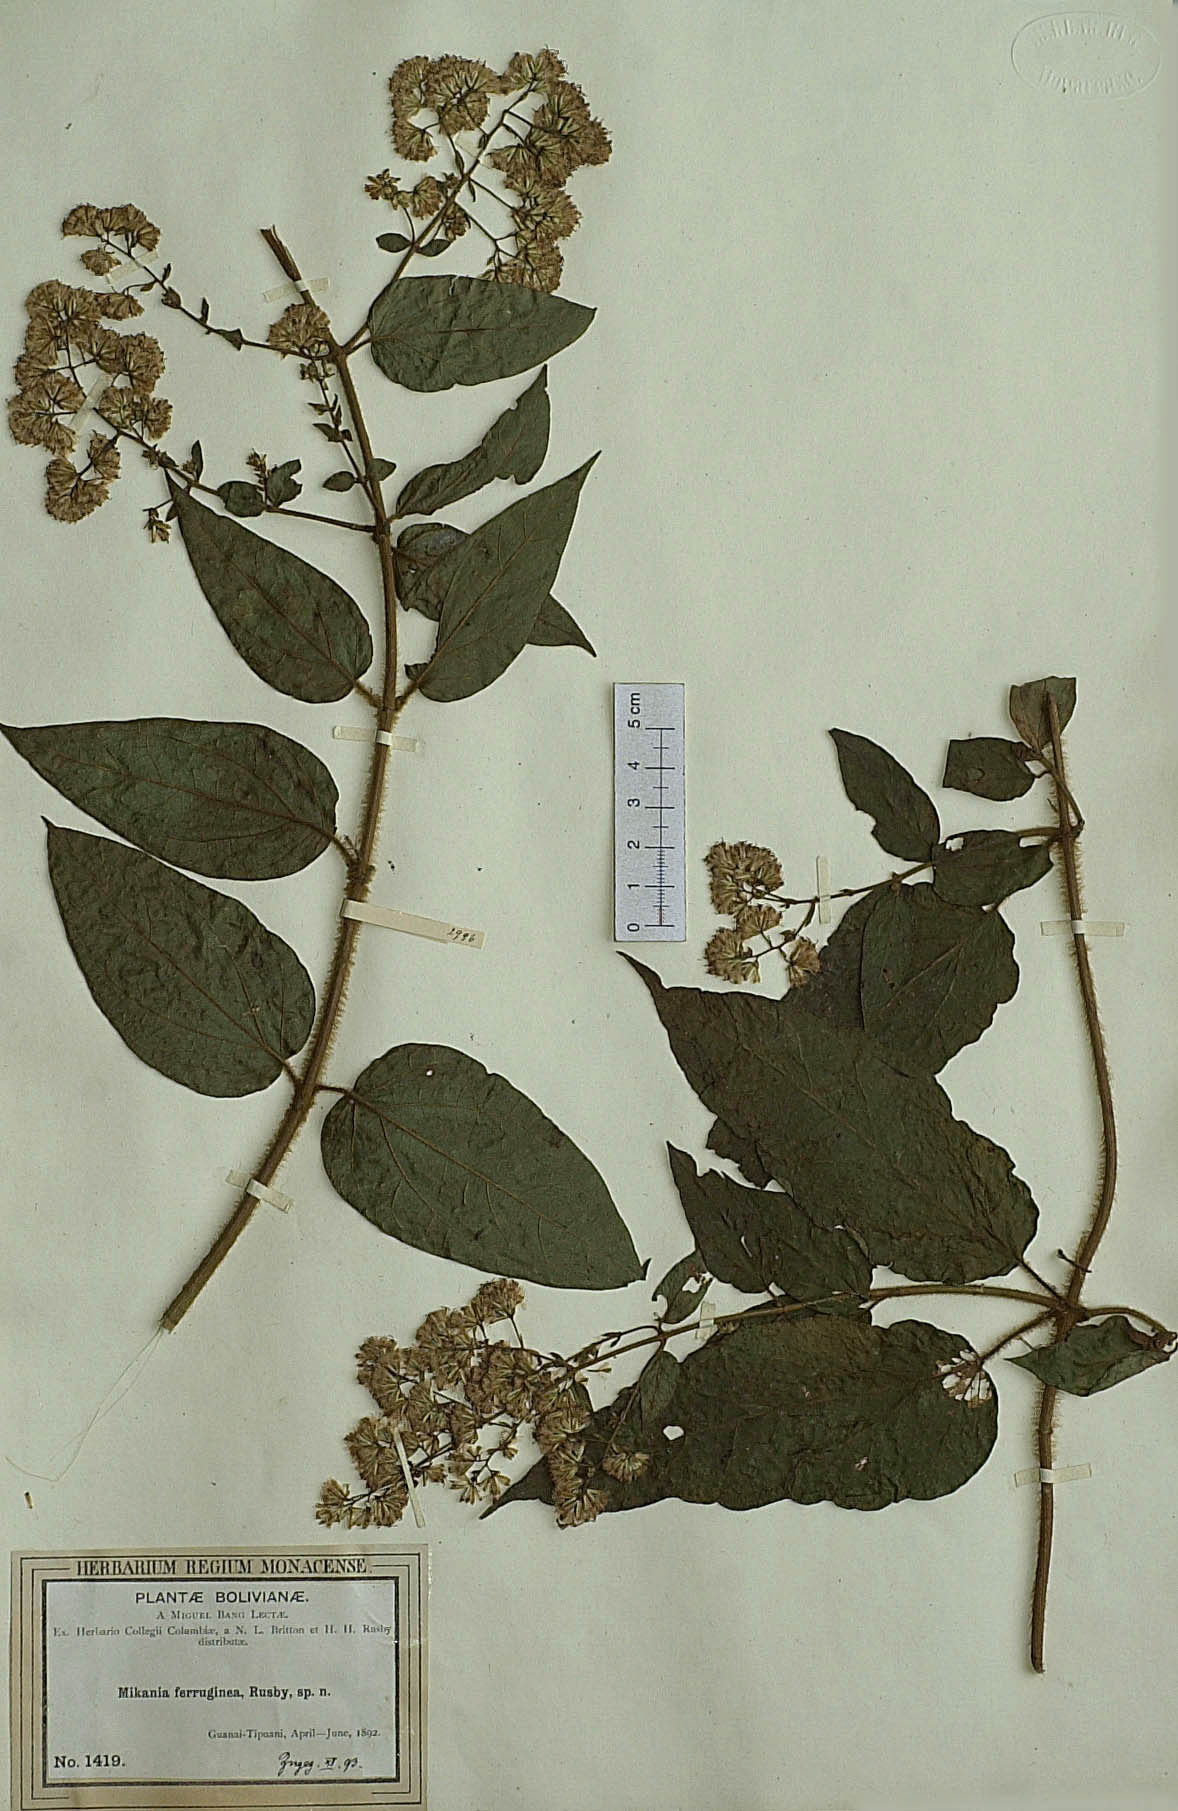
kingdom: Plantae
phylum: Tracheophyta
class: Magnoliopsida
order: Asterales
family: Asteraceae
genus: Mikania
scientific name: Mikania banisteriae
